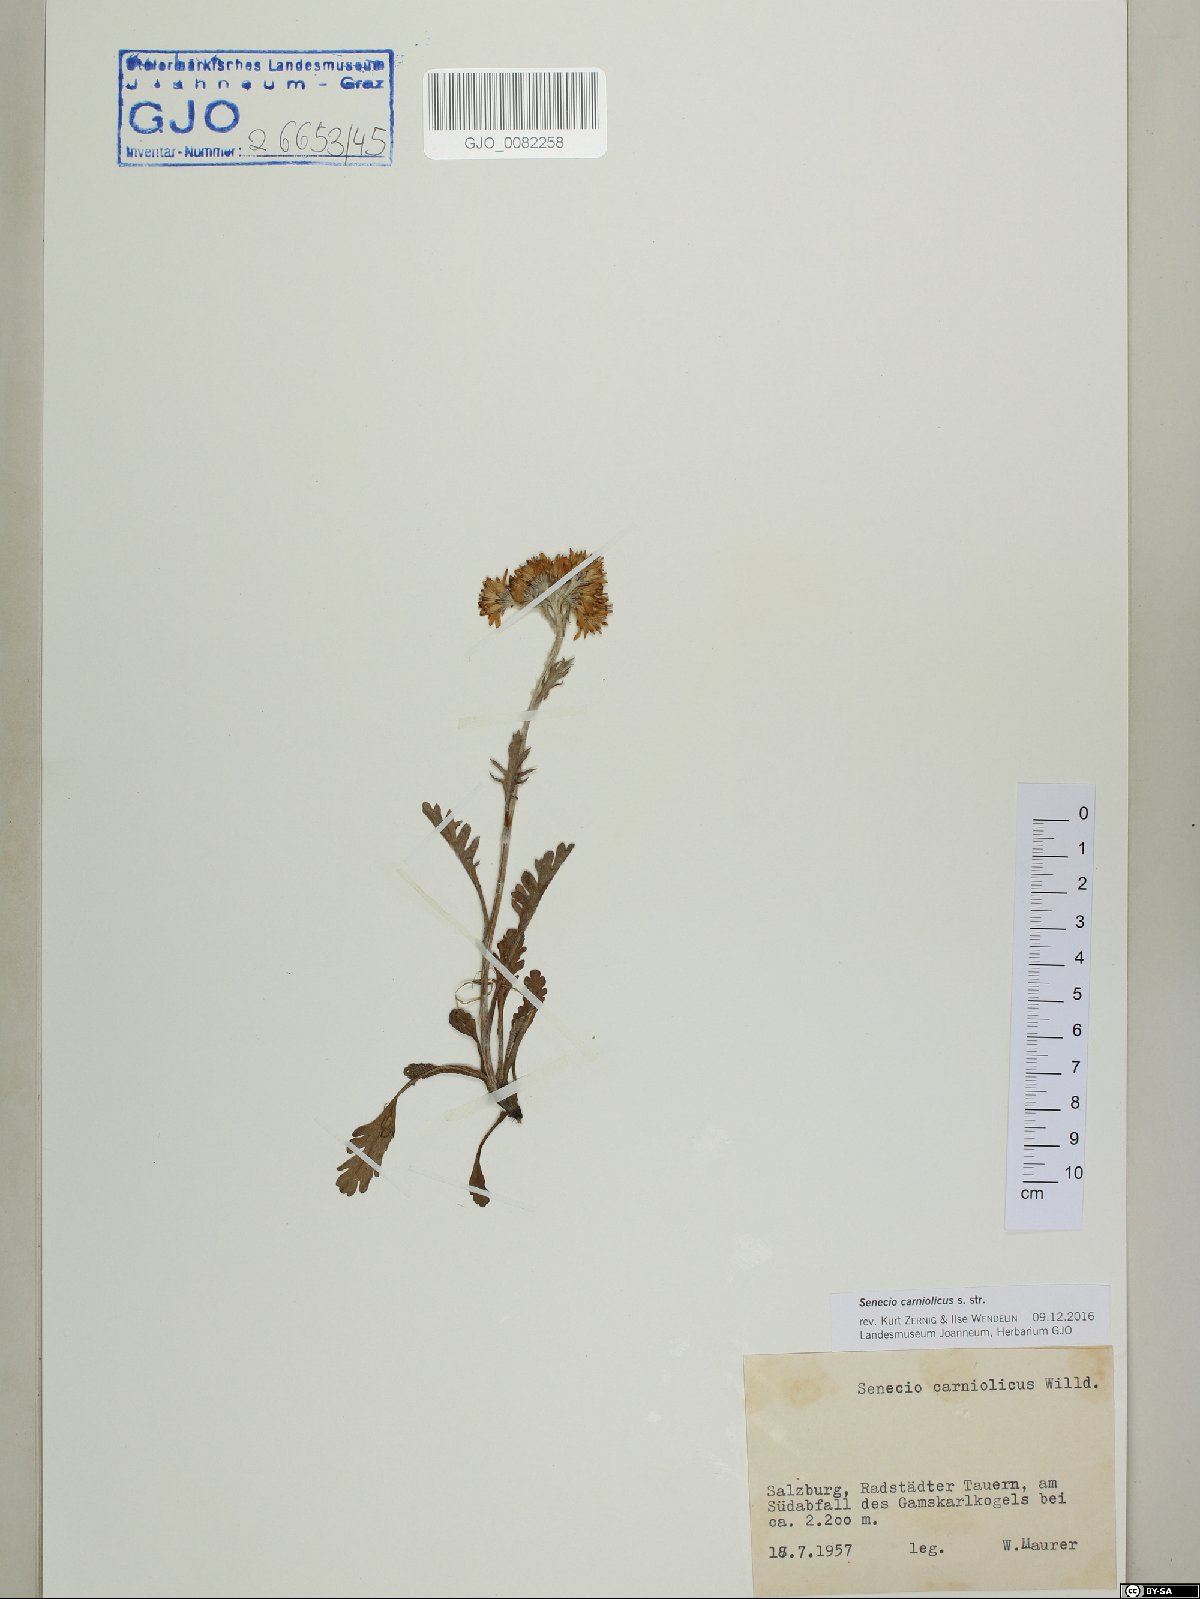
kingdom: Plantae
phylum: Tracheophyta
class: Magnoliopsida
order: Asterales
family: Asteraceae
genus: Jacobaea
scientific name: Jacobaea carniolica
